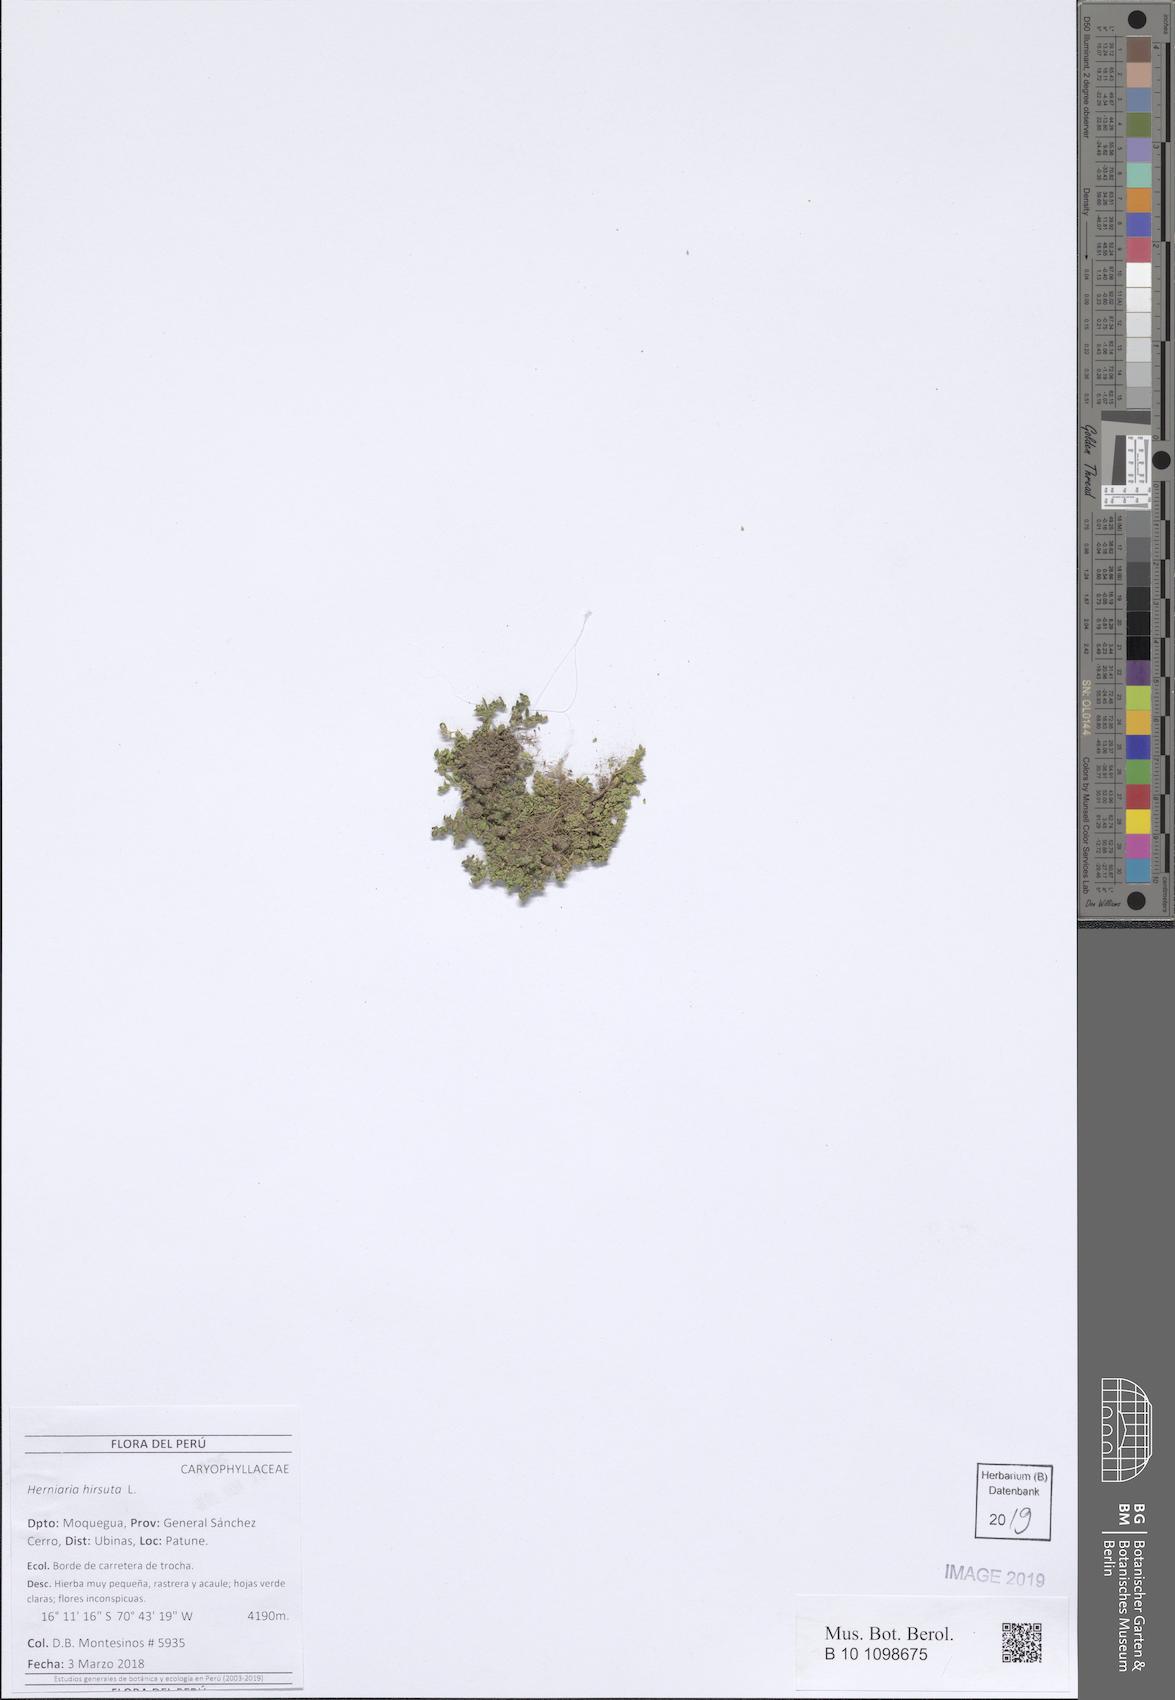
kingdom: Plantae
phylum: Tracheophyta
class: Magnoliopsida
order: Caryophyllales
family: Caryophyllaceae
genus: Herniaria
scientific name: Herniaria hirsuta
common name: Hairy rupturewort
